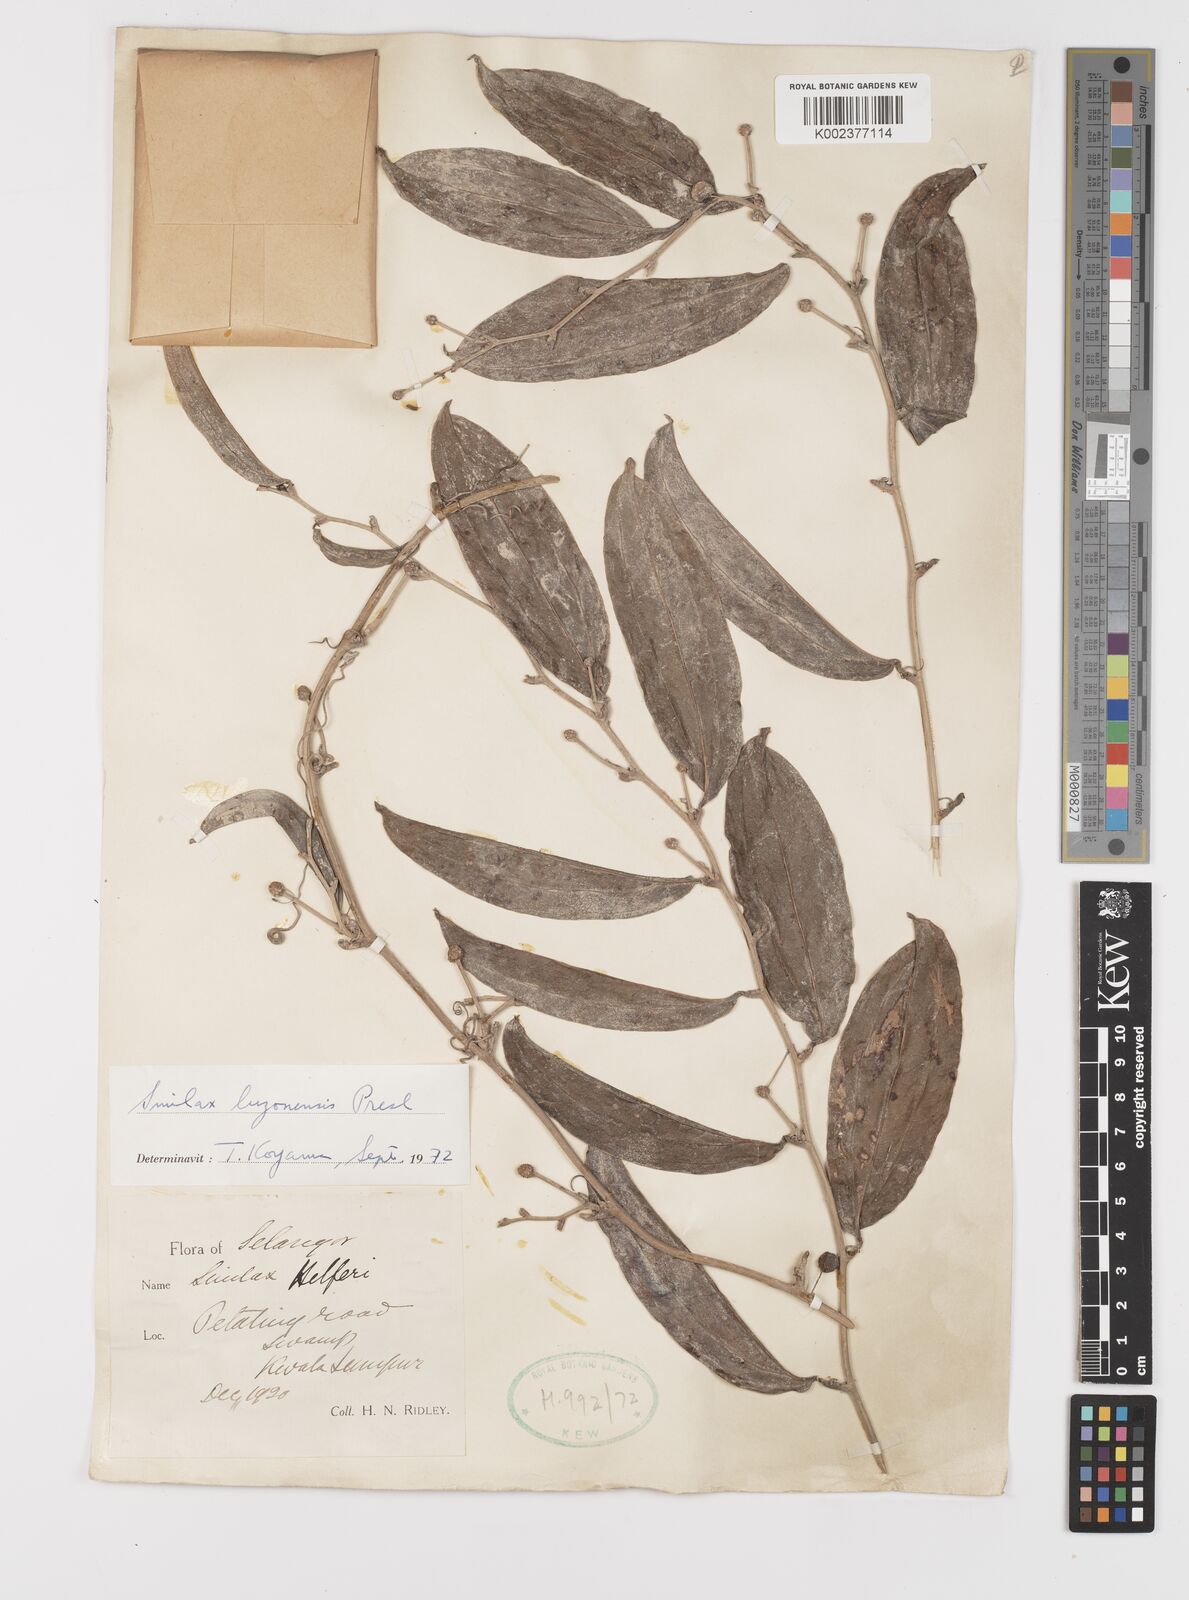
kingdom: Plantae
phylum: Tracheophyta
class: Liliopsida
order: Liliales
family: Smilacaceae
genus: Smilax
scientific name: Smilax luzonensis
